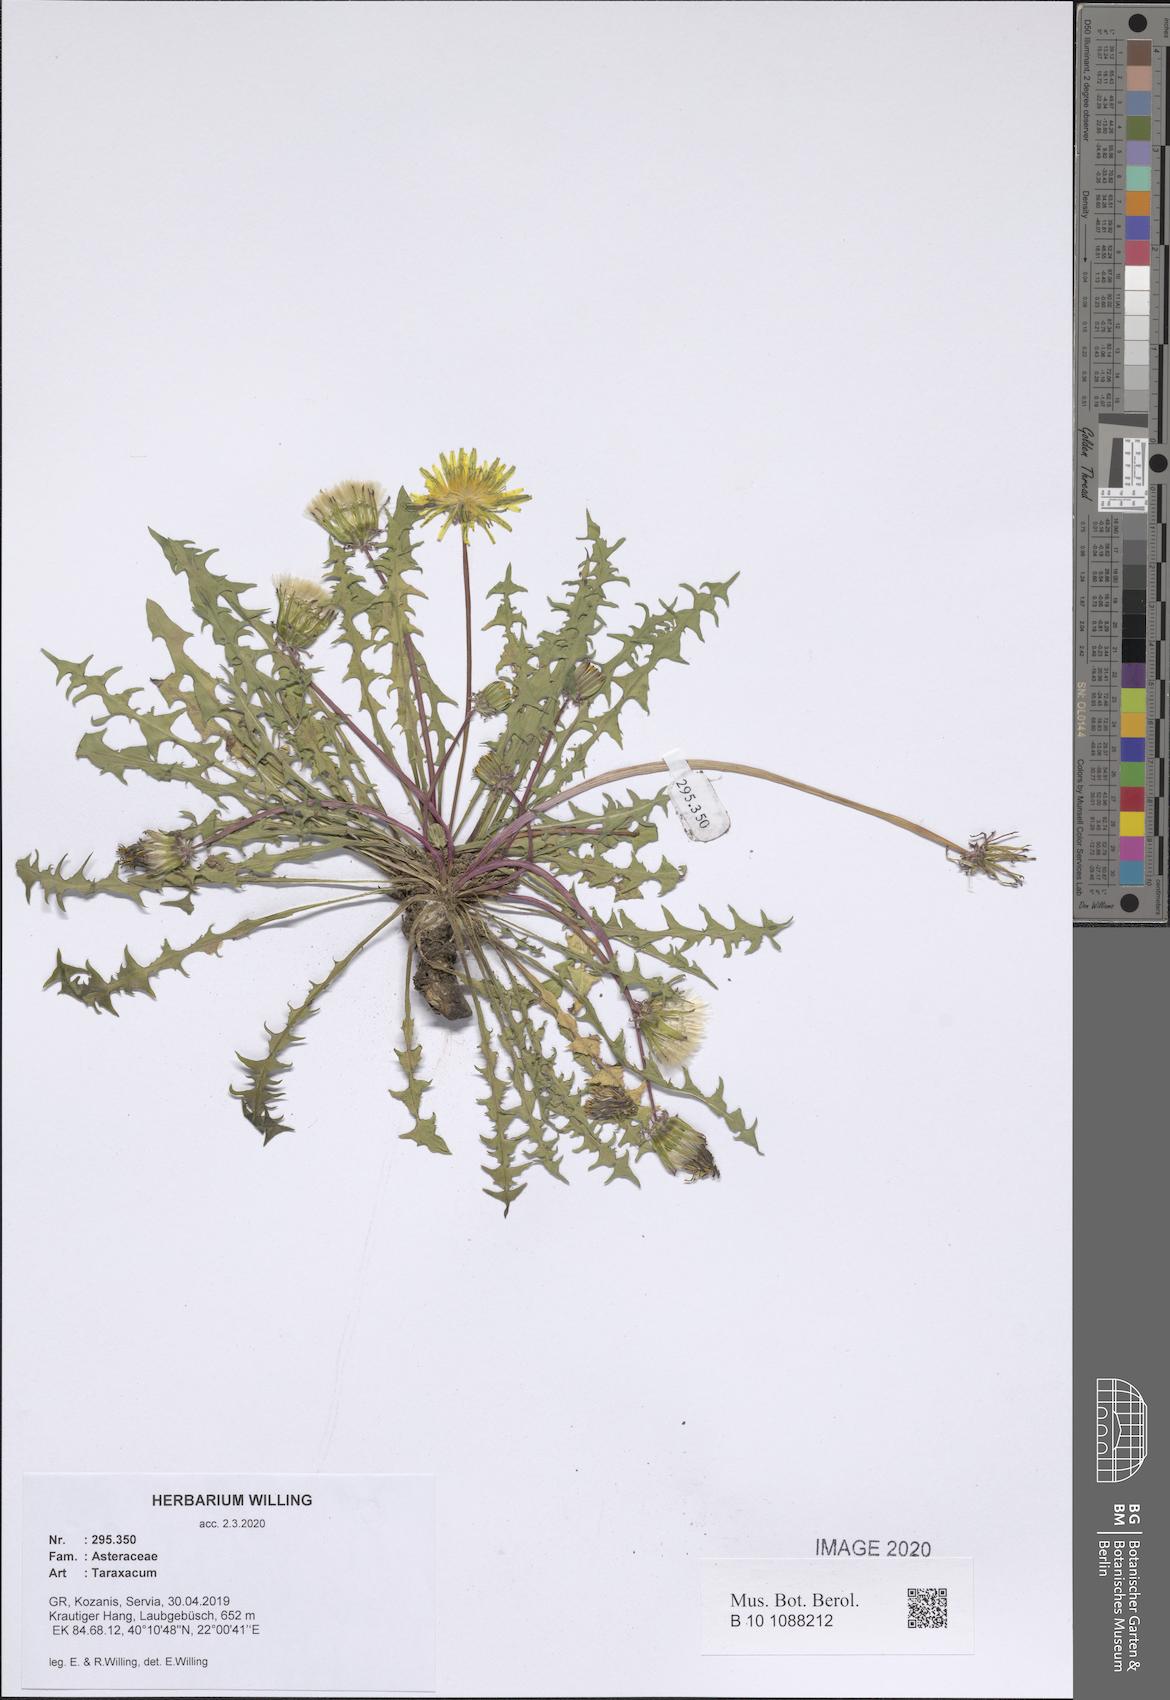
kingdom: Plantae
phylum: Tracheophyta
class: Magnoliopsida
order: Asterales
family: Asteraceae
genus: Taraxacum
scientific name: Taraxacum
